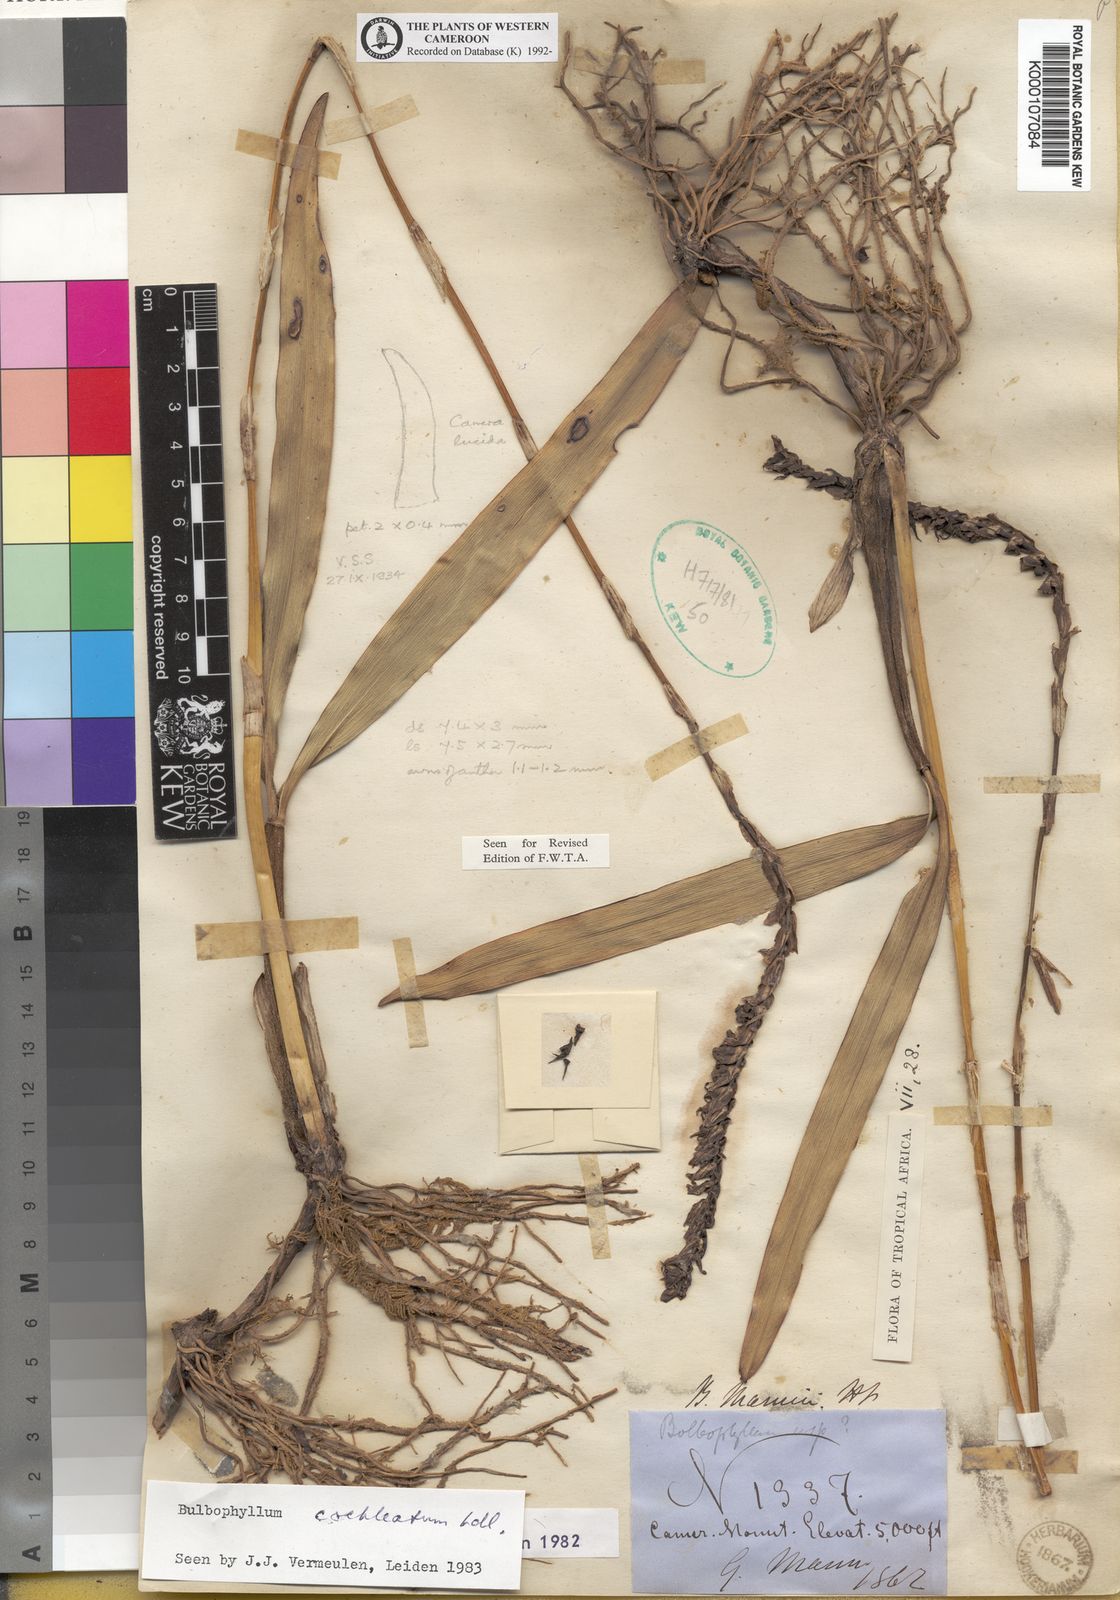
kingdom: Plantae
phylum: Tracheophyta
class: Liliopsida
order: Asparagales
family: Orchidaceae
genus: Bulbophyllum
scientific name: Bulbophyllum cochleatum
